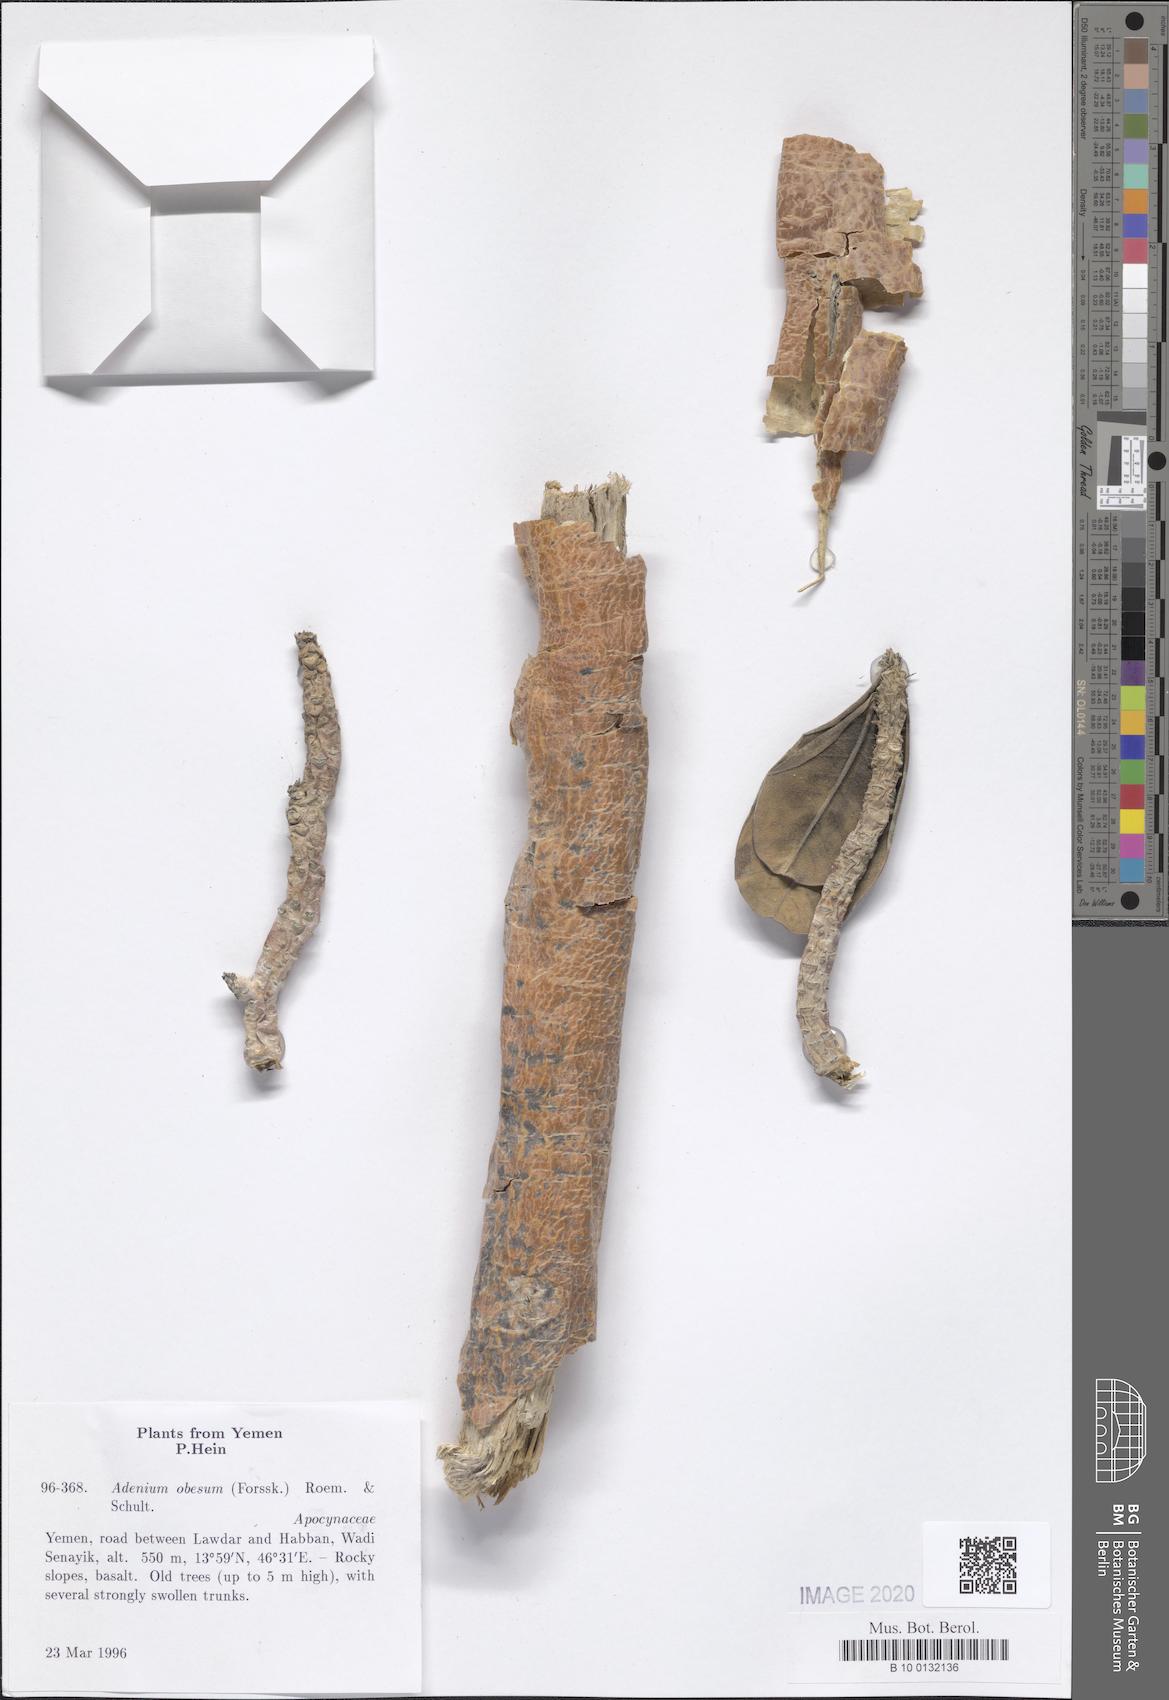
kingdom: Plantae
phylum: Tracheophyta
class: Magnoliopsida
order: Gentianales
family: Apocynaceae
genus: Adenium
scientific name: Adenium obesum
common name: Desert-rose
